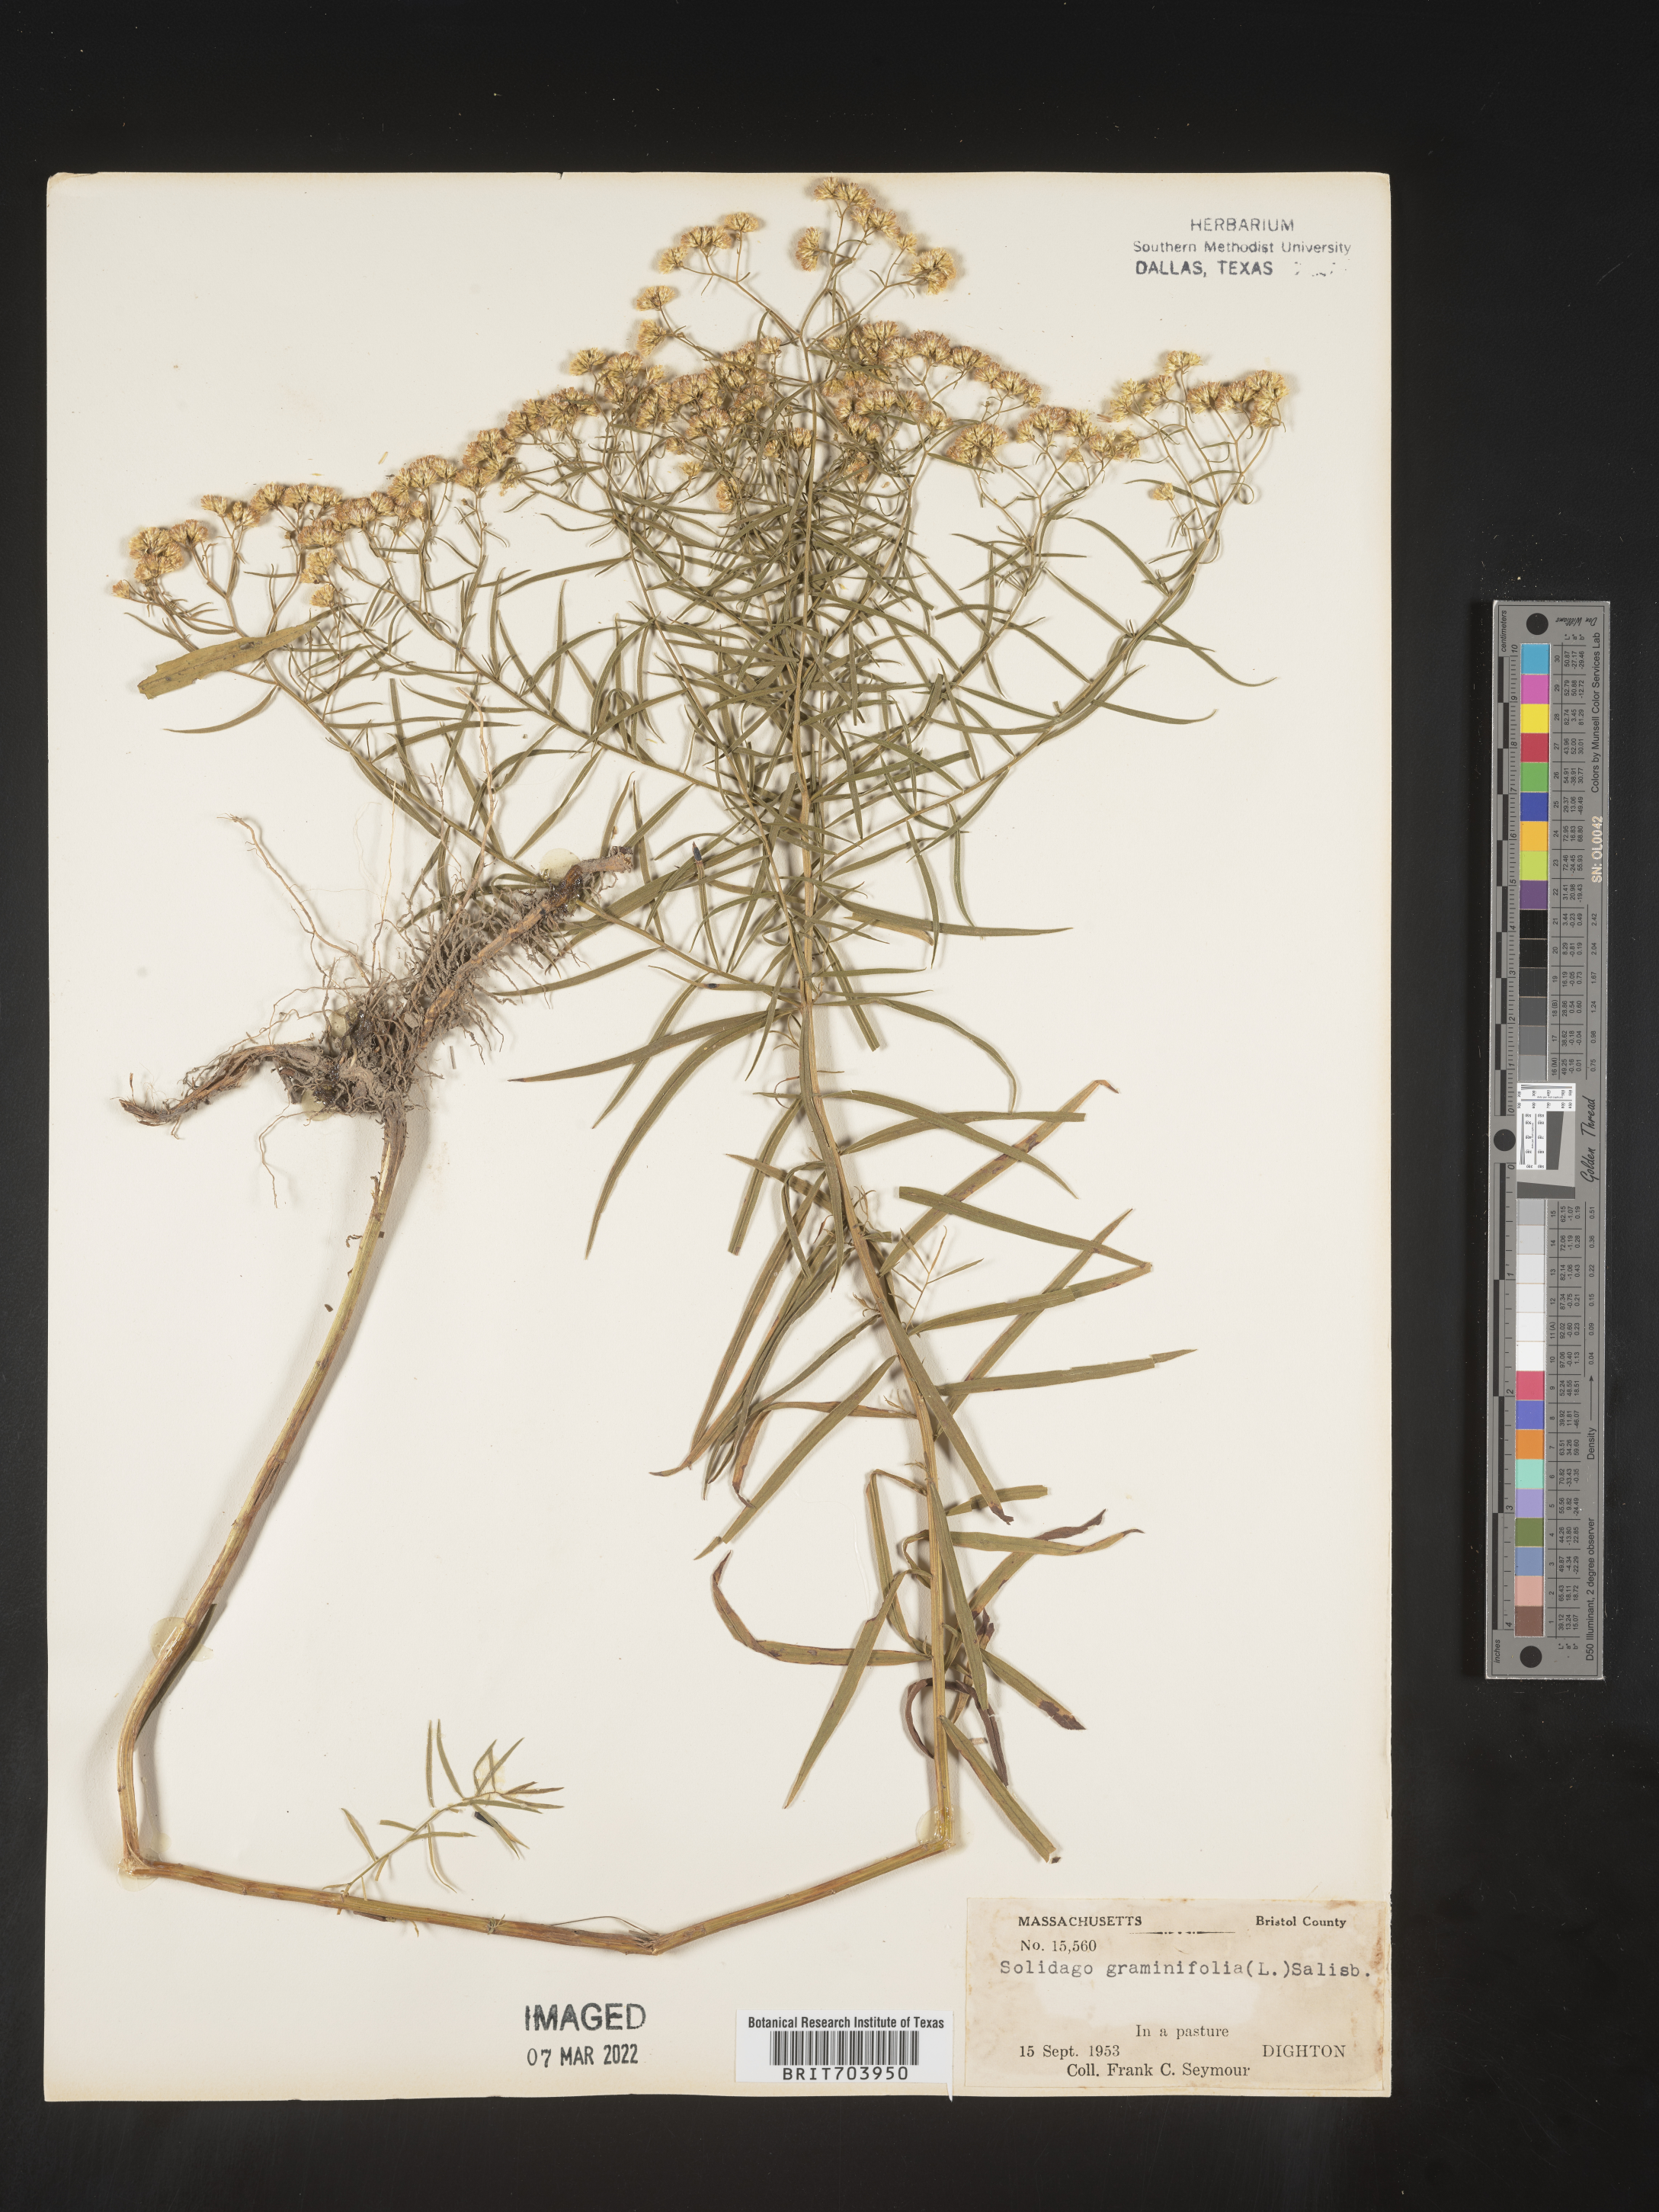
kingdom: Plantae
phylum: Tracheophyta
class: Magnoliopsida
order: Asterales
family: Asteraceae
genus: Euthamia
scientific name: Euthamia graminifolia
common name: Common goldentop
